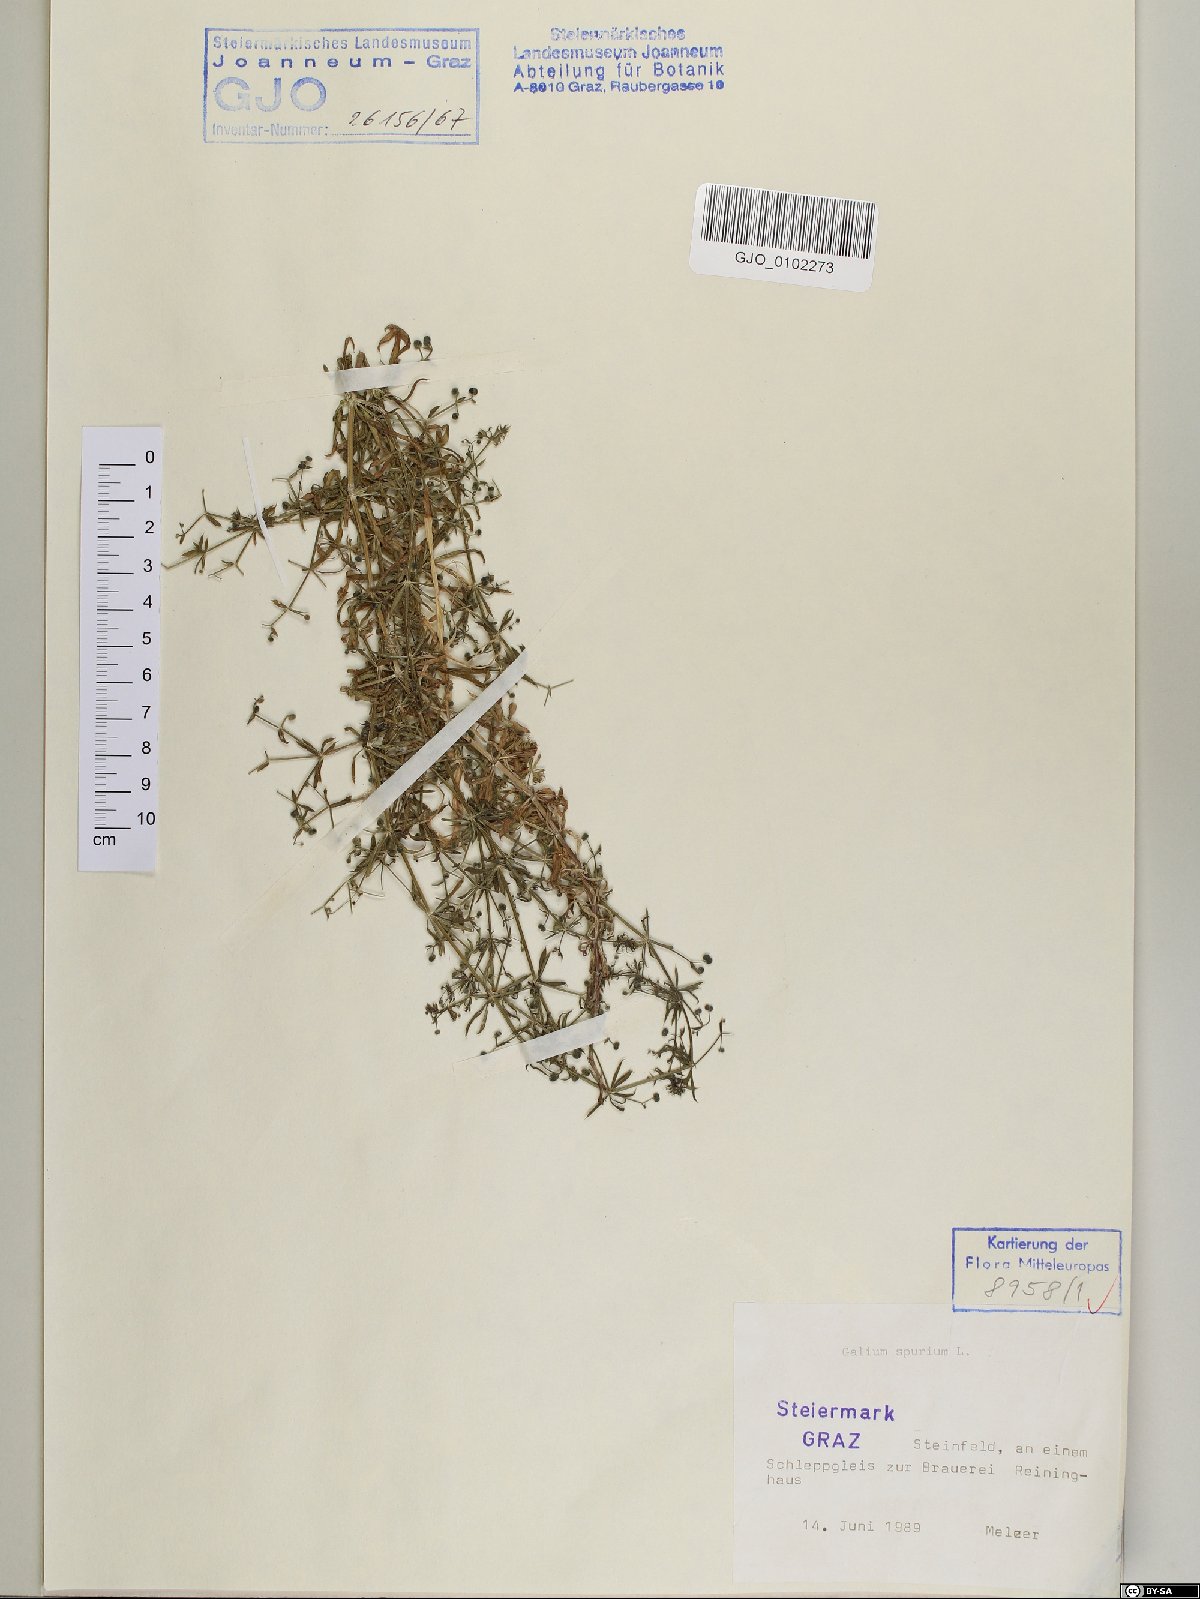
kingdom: Plantae
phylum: Tracheophyta
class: Magnoliopsida
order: Gentianales
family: Rubiaceae
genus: Galium
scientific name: Galium spurium
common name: False cleavers
